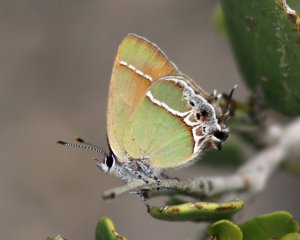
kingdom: Animalia
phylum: Arthropoda
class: Insecta
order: Lepidoptera
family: Lycaenidae
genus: Xamia
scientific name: Xamia xami
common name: Xami Hairstreak
